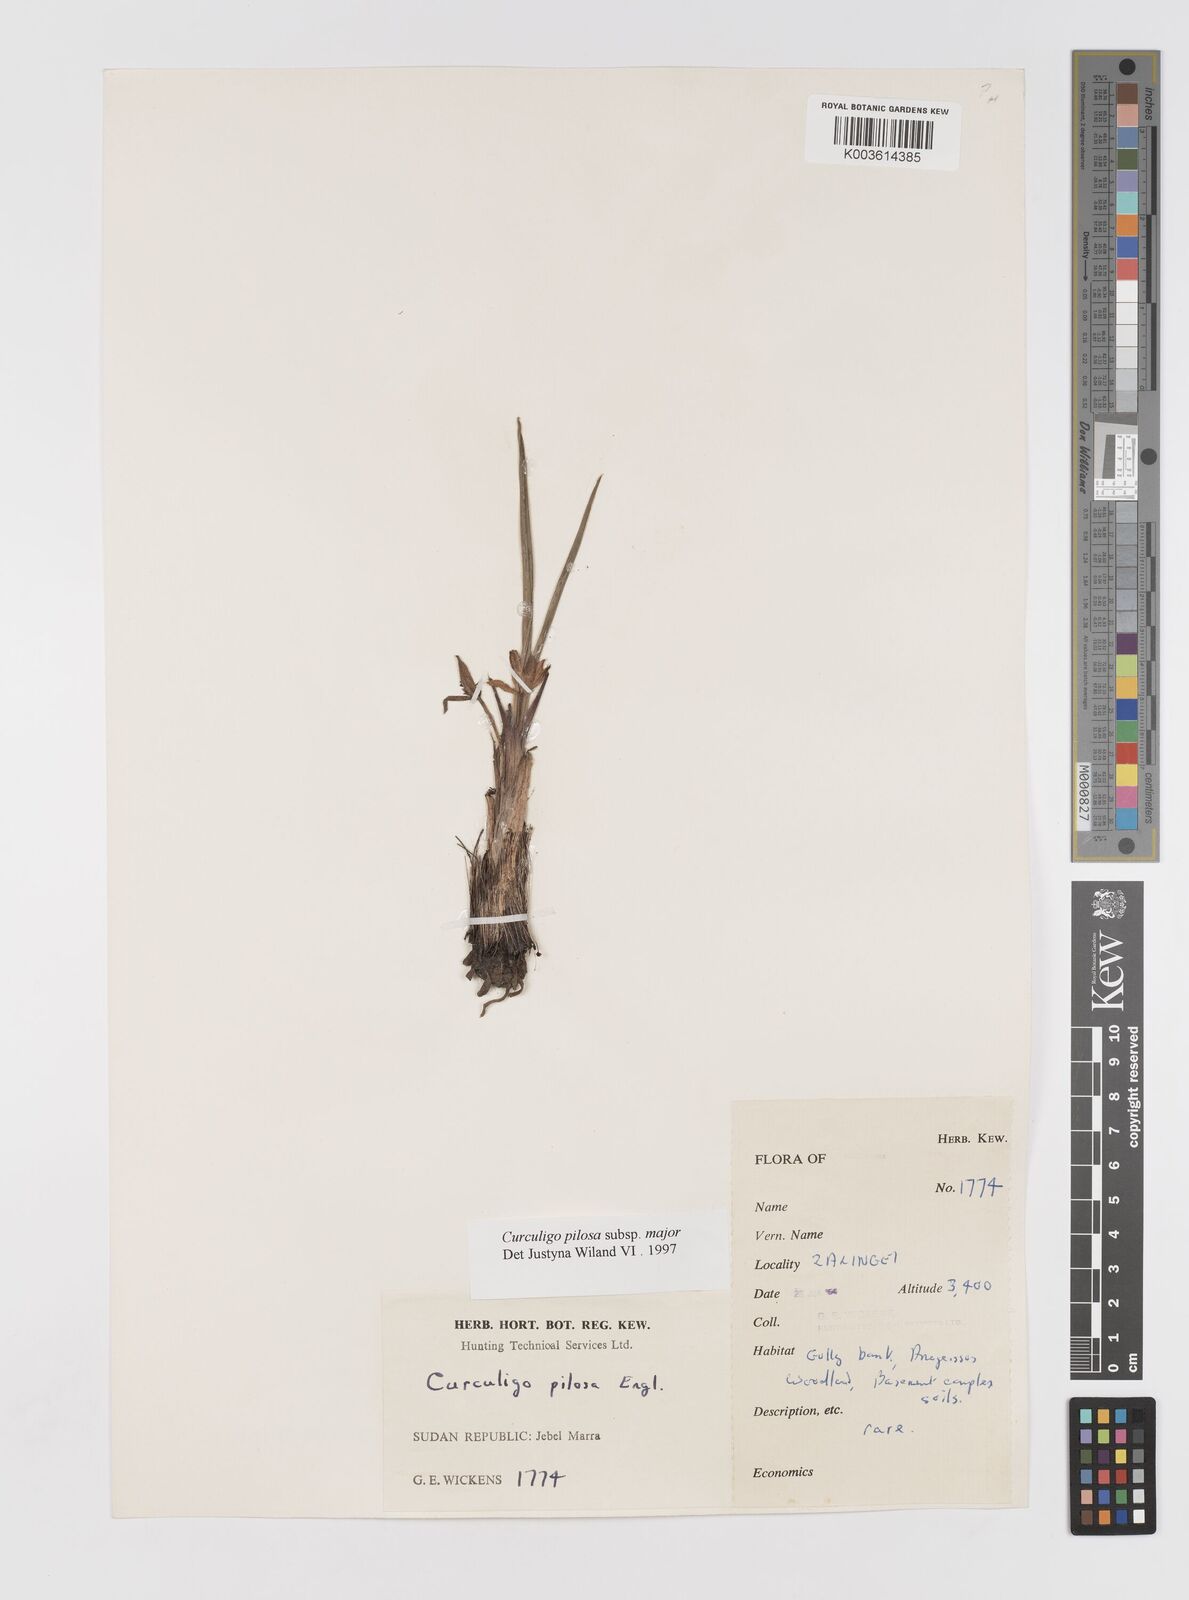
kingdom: Plantae
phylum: Tracheophyta
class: Liliopsida
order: Asparagales
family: Hypoxidaceae
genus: Curculigo
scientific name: Curculigo pilosa
